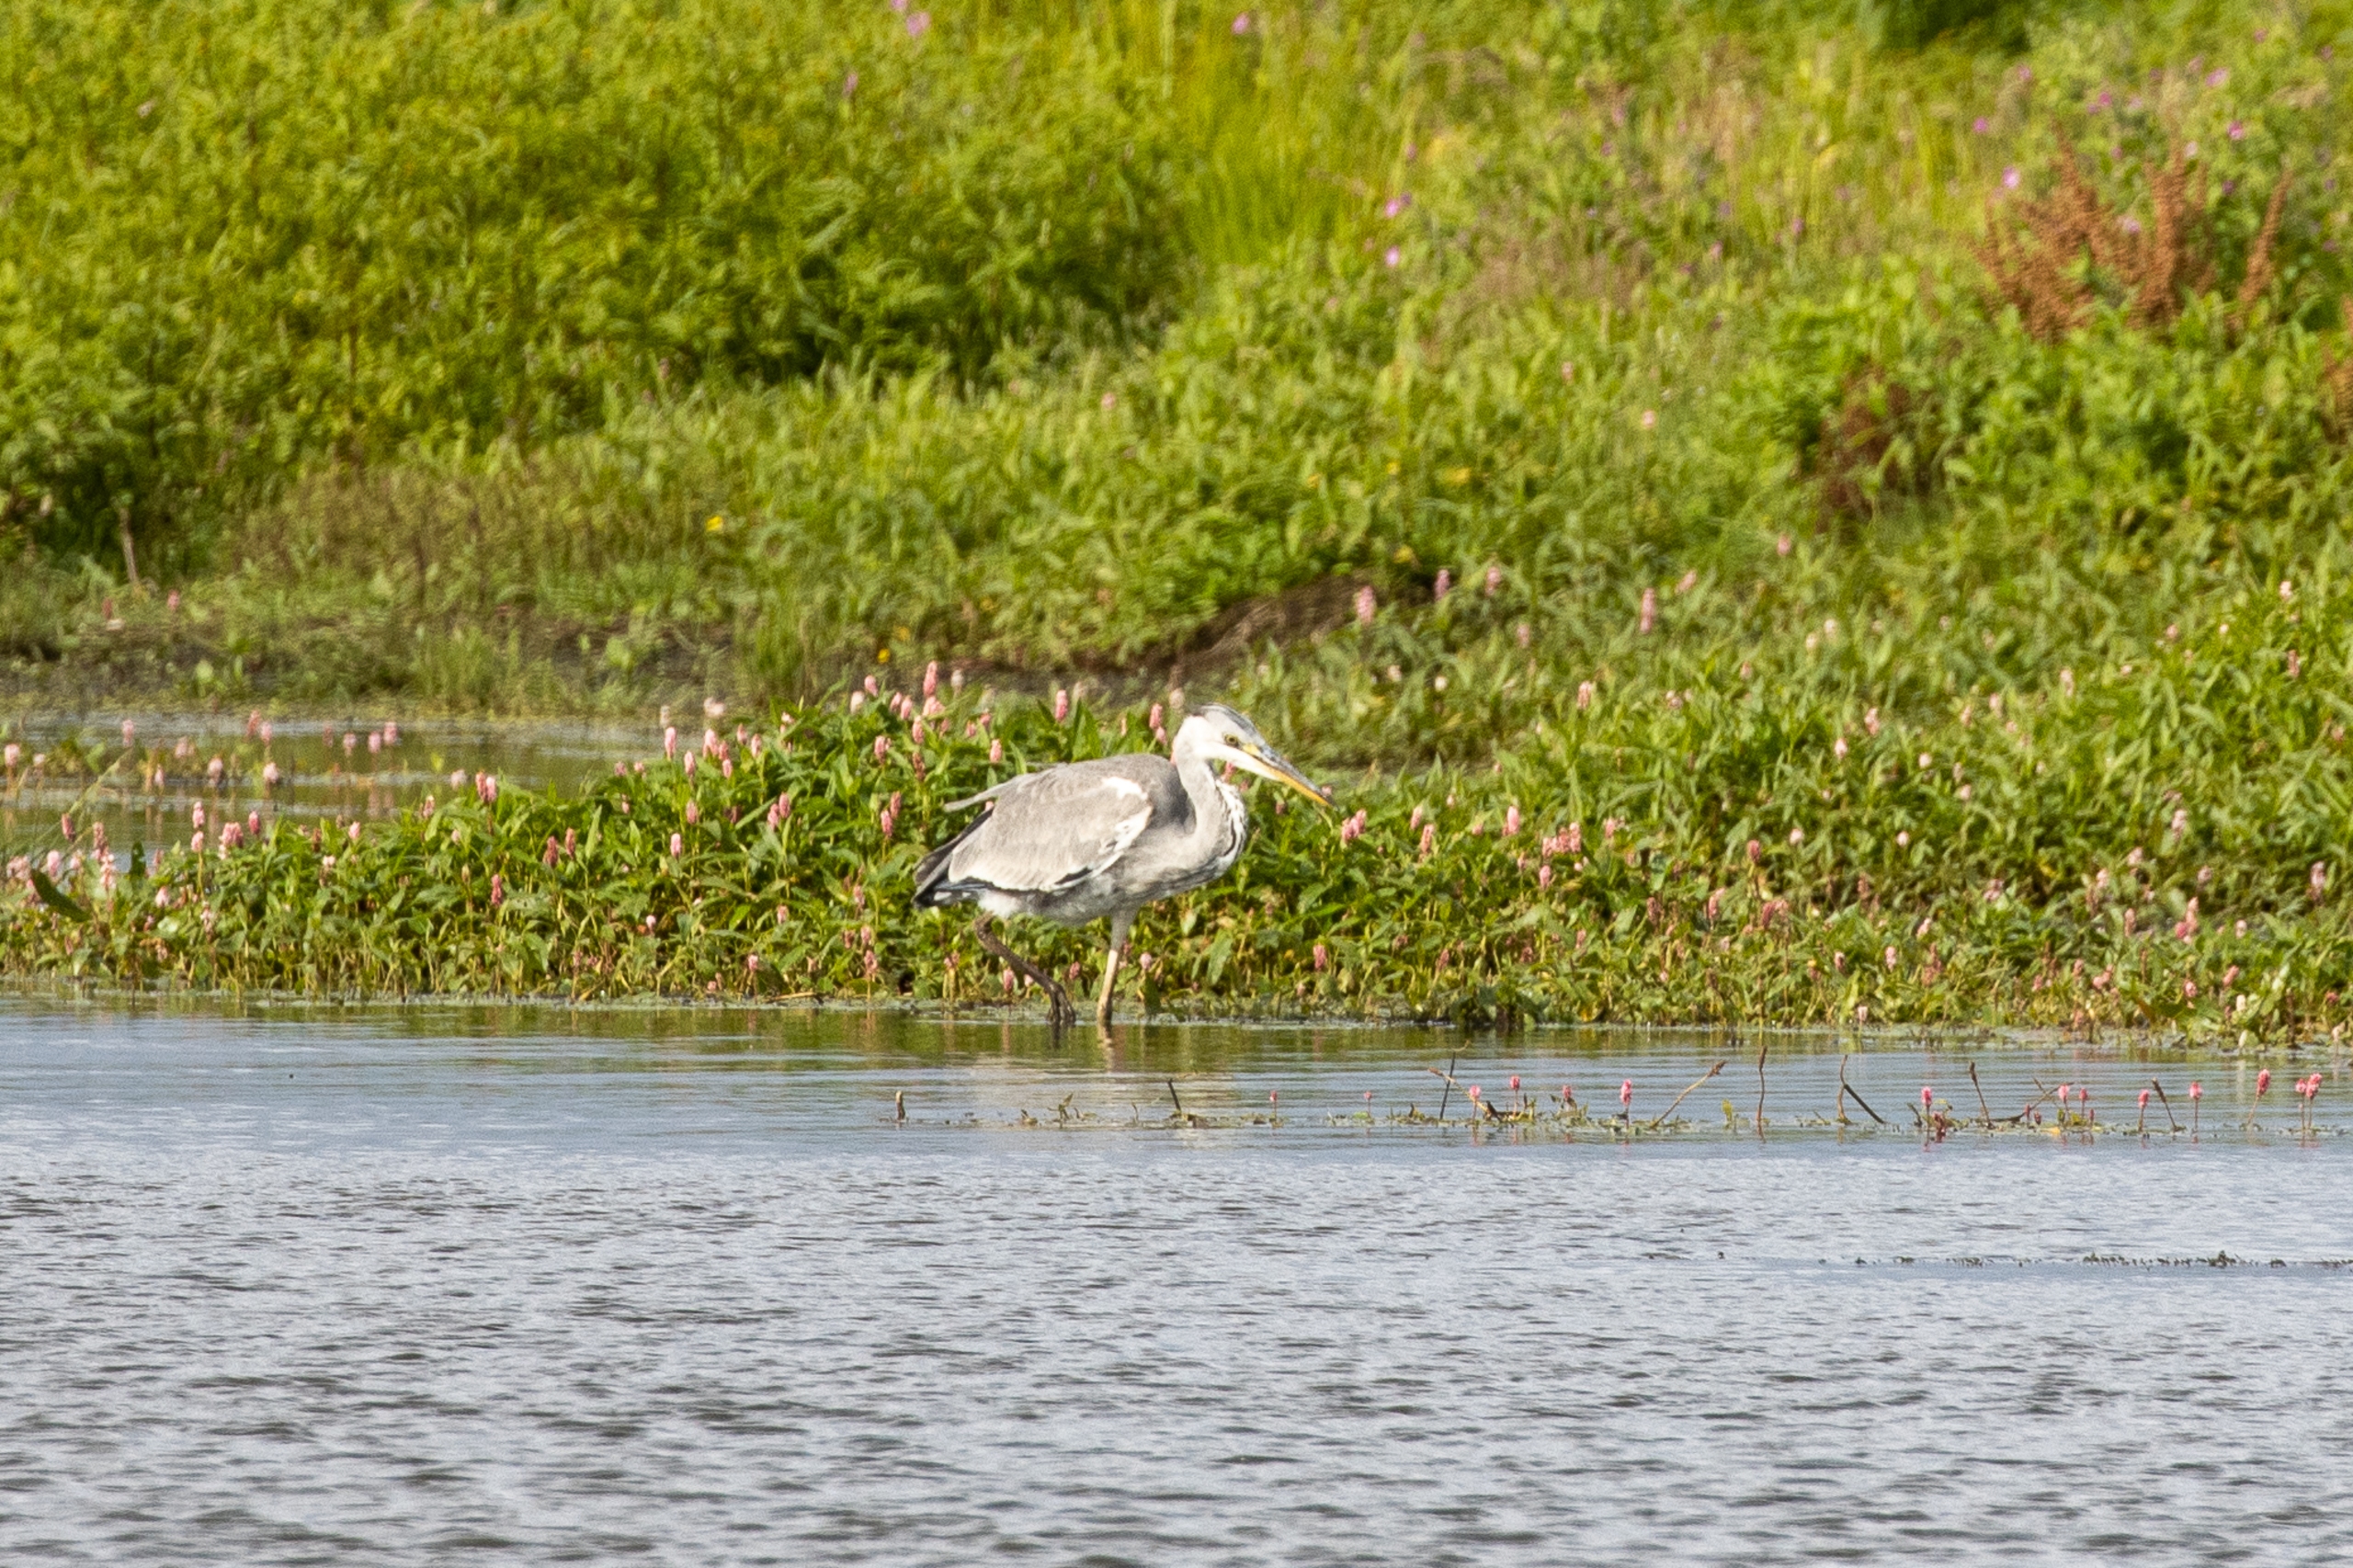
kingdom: Animalia
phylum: Chordata
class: Aves
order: Pelecaniformes
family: Ardeidae
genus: Ardea
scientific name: Ardea cinerea
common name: Fiskehejre
